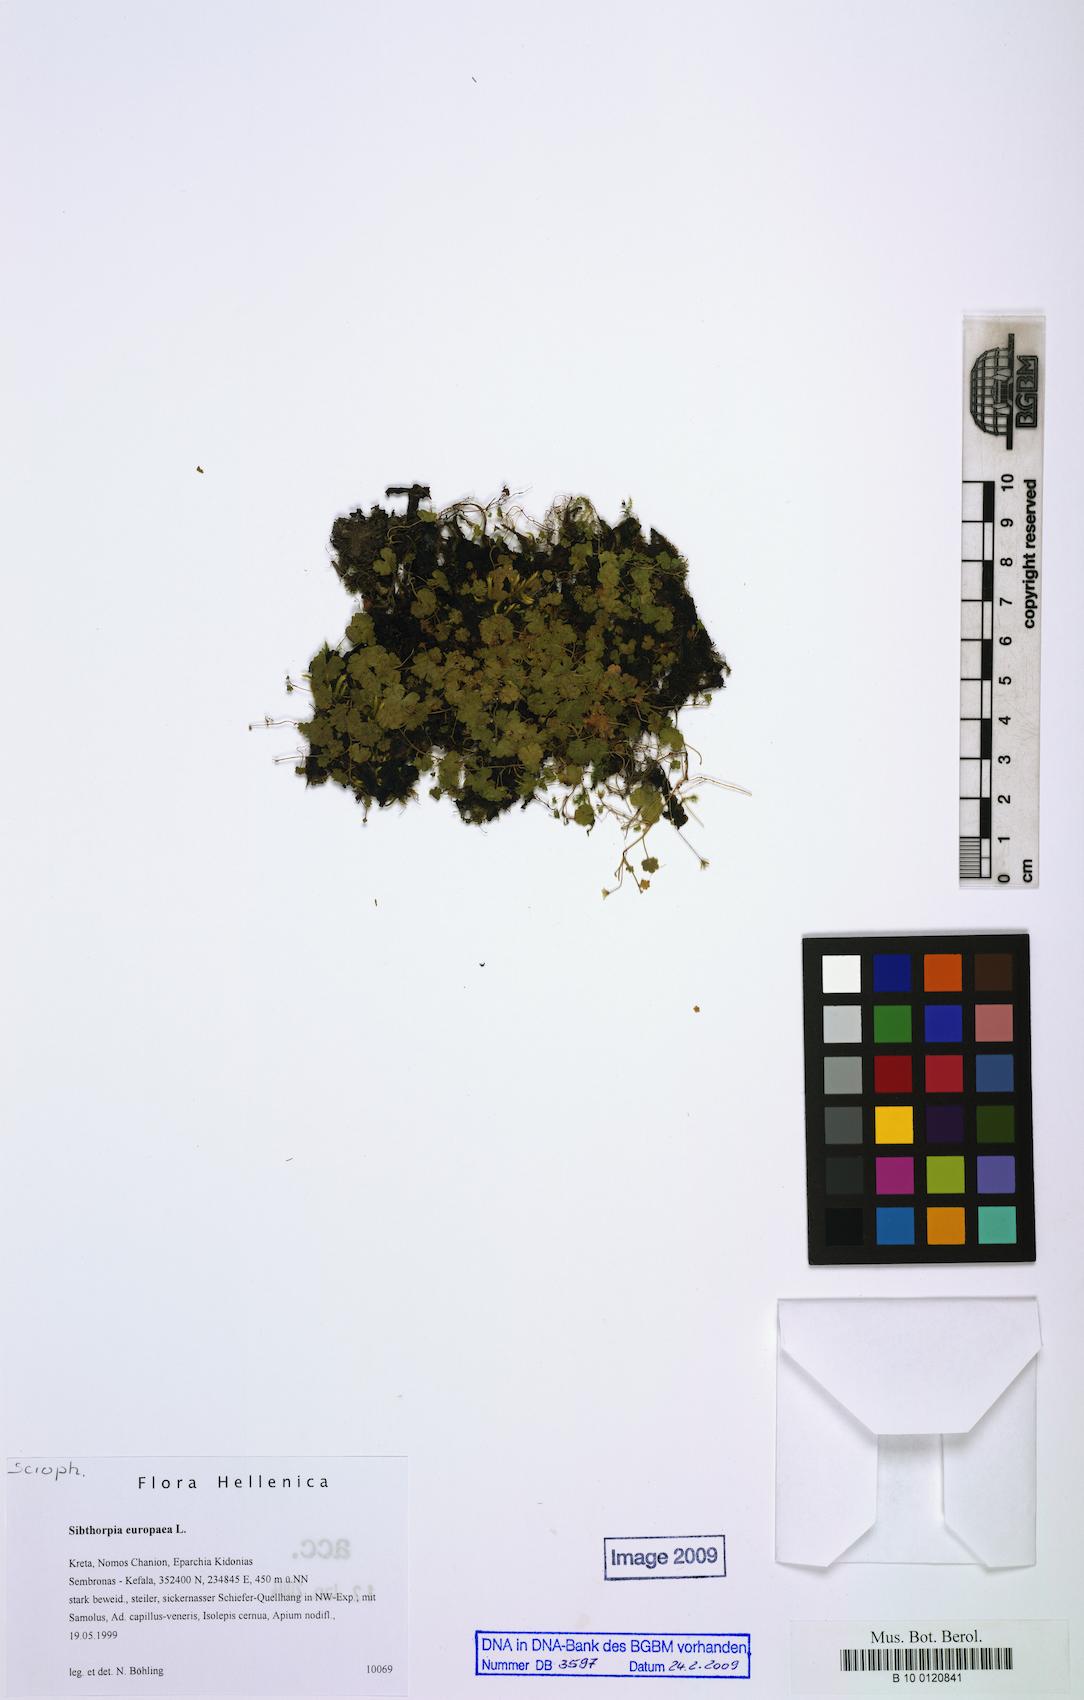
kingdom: Plantae
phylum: Tracheophyta
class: Magnoliopsida
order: Lamiales
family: Plantaginaceae
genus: Sibthorpia
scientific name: Sibthorpia europaea
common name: Cornish moneywort
